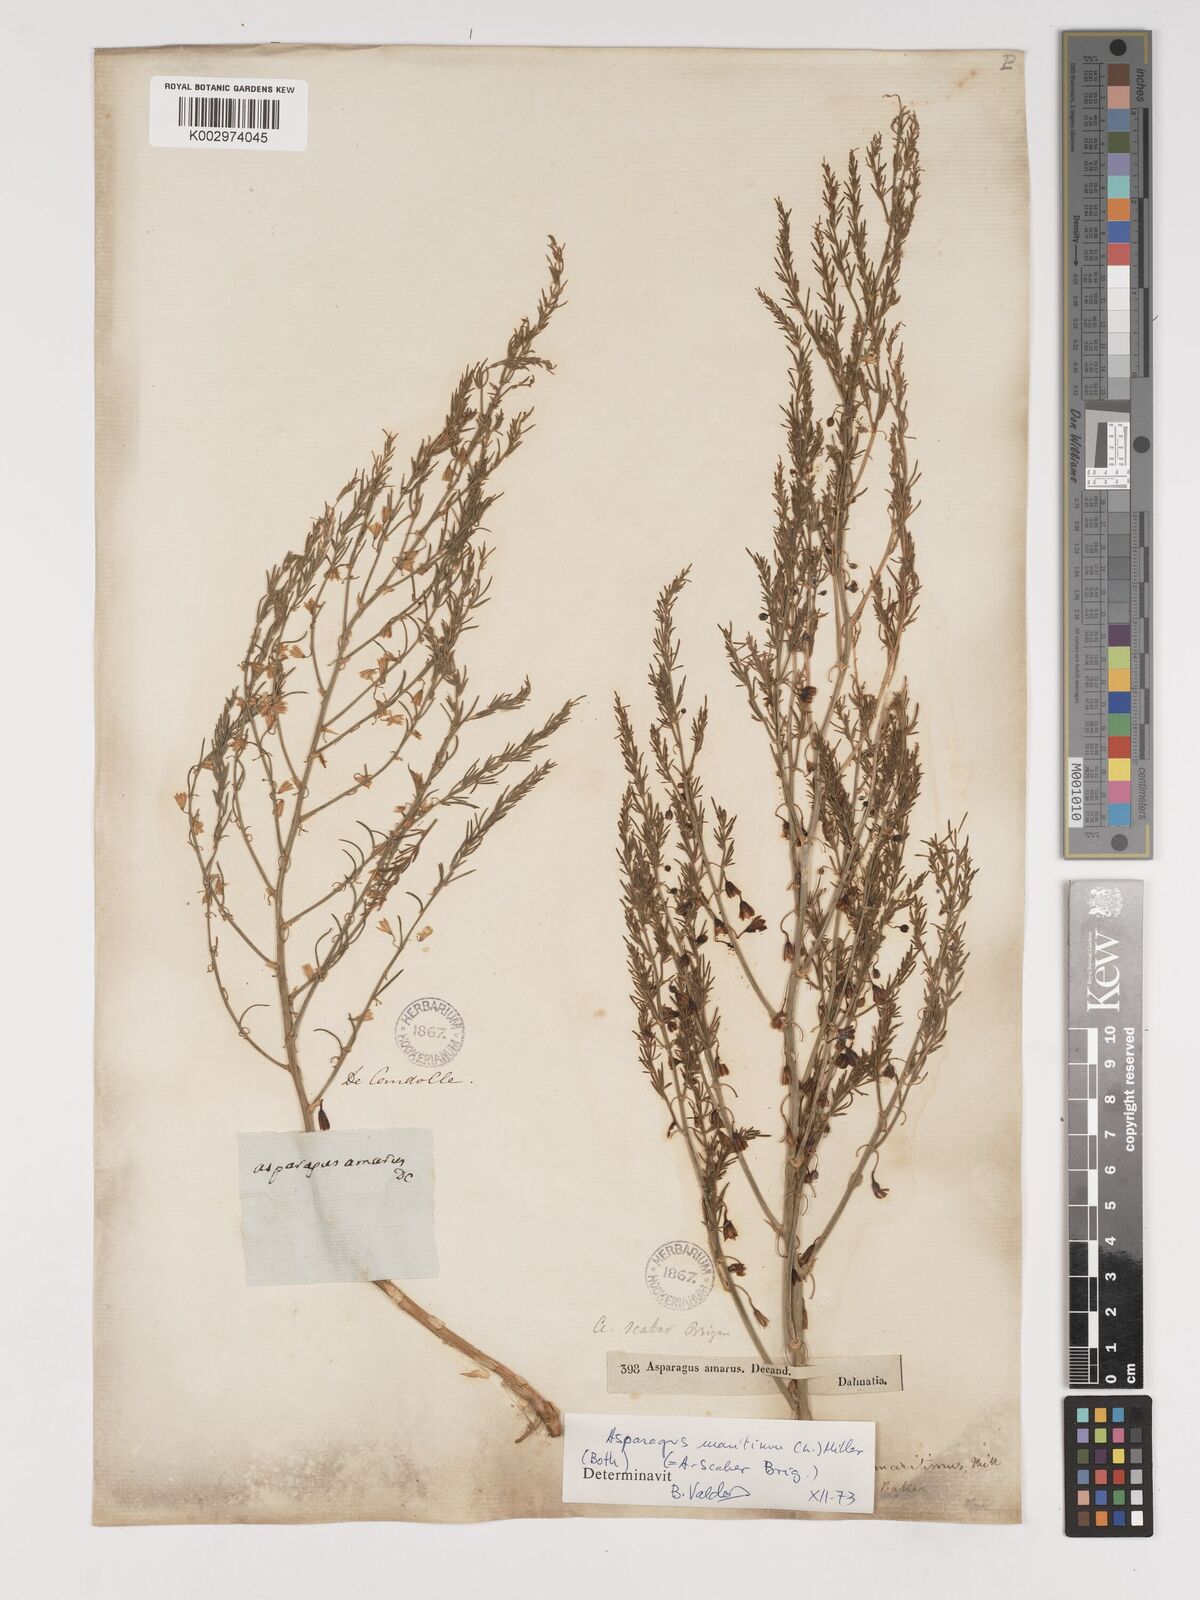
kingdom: Plantae
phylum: Tracheophyta
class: Liliopsida
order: Asparagales
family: Asparagaceae
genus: Asparagus
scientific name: Asparagus maritimus
